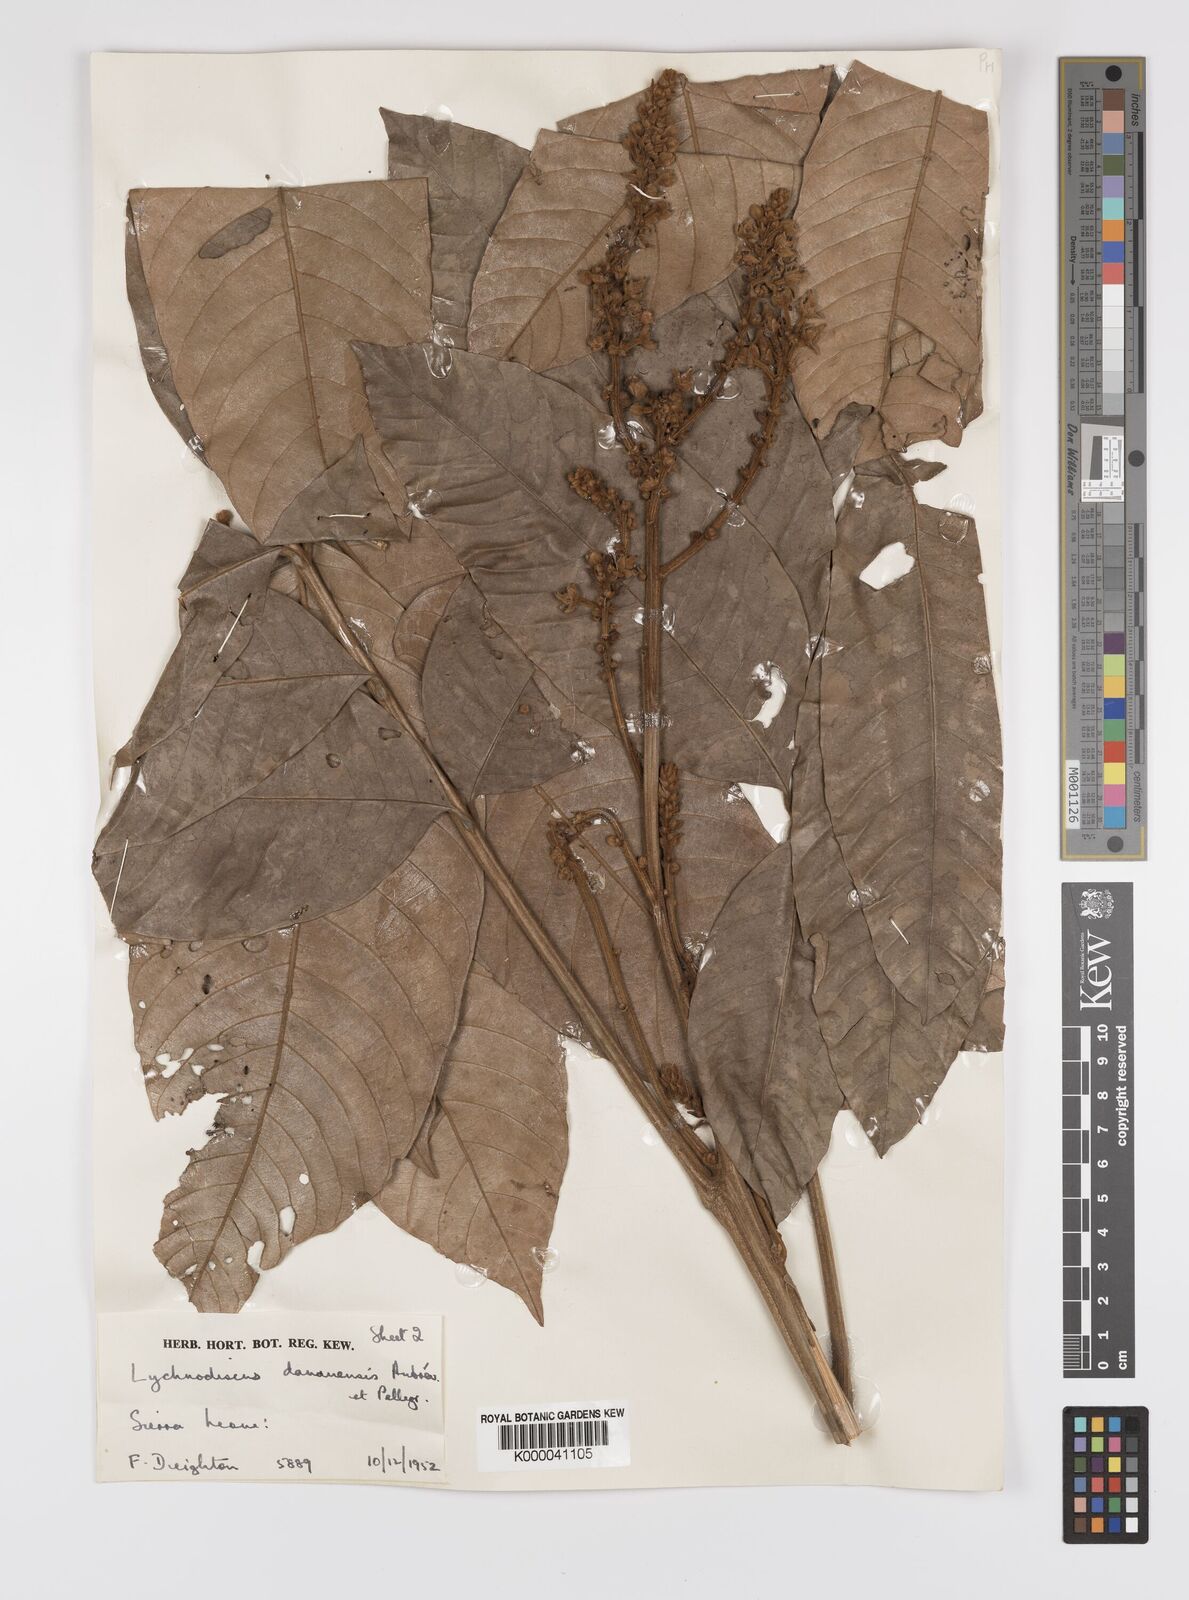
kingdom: Plantae
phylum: Tracheophyta
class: Magnoliopsida
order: Sapindales
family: Sapindaceae
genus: Lychnodiscus
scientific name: Lychnodiscus dananensis
